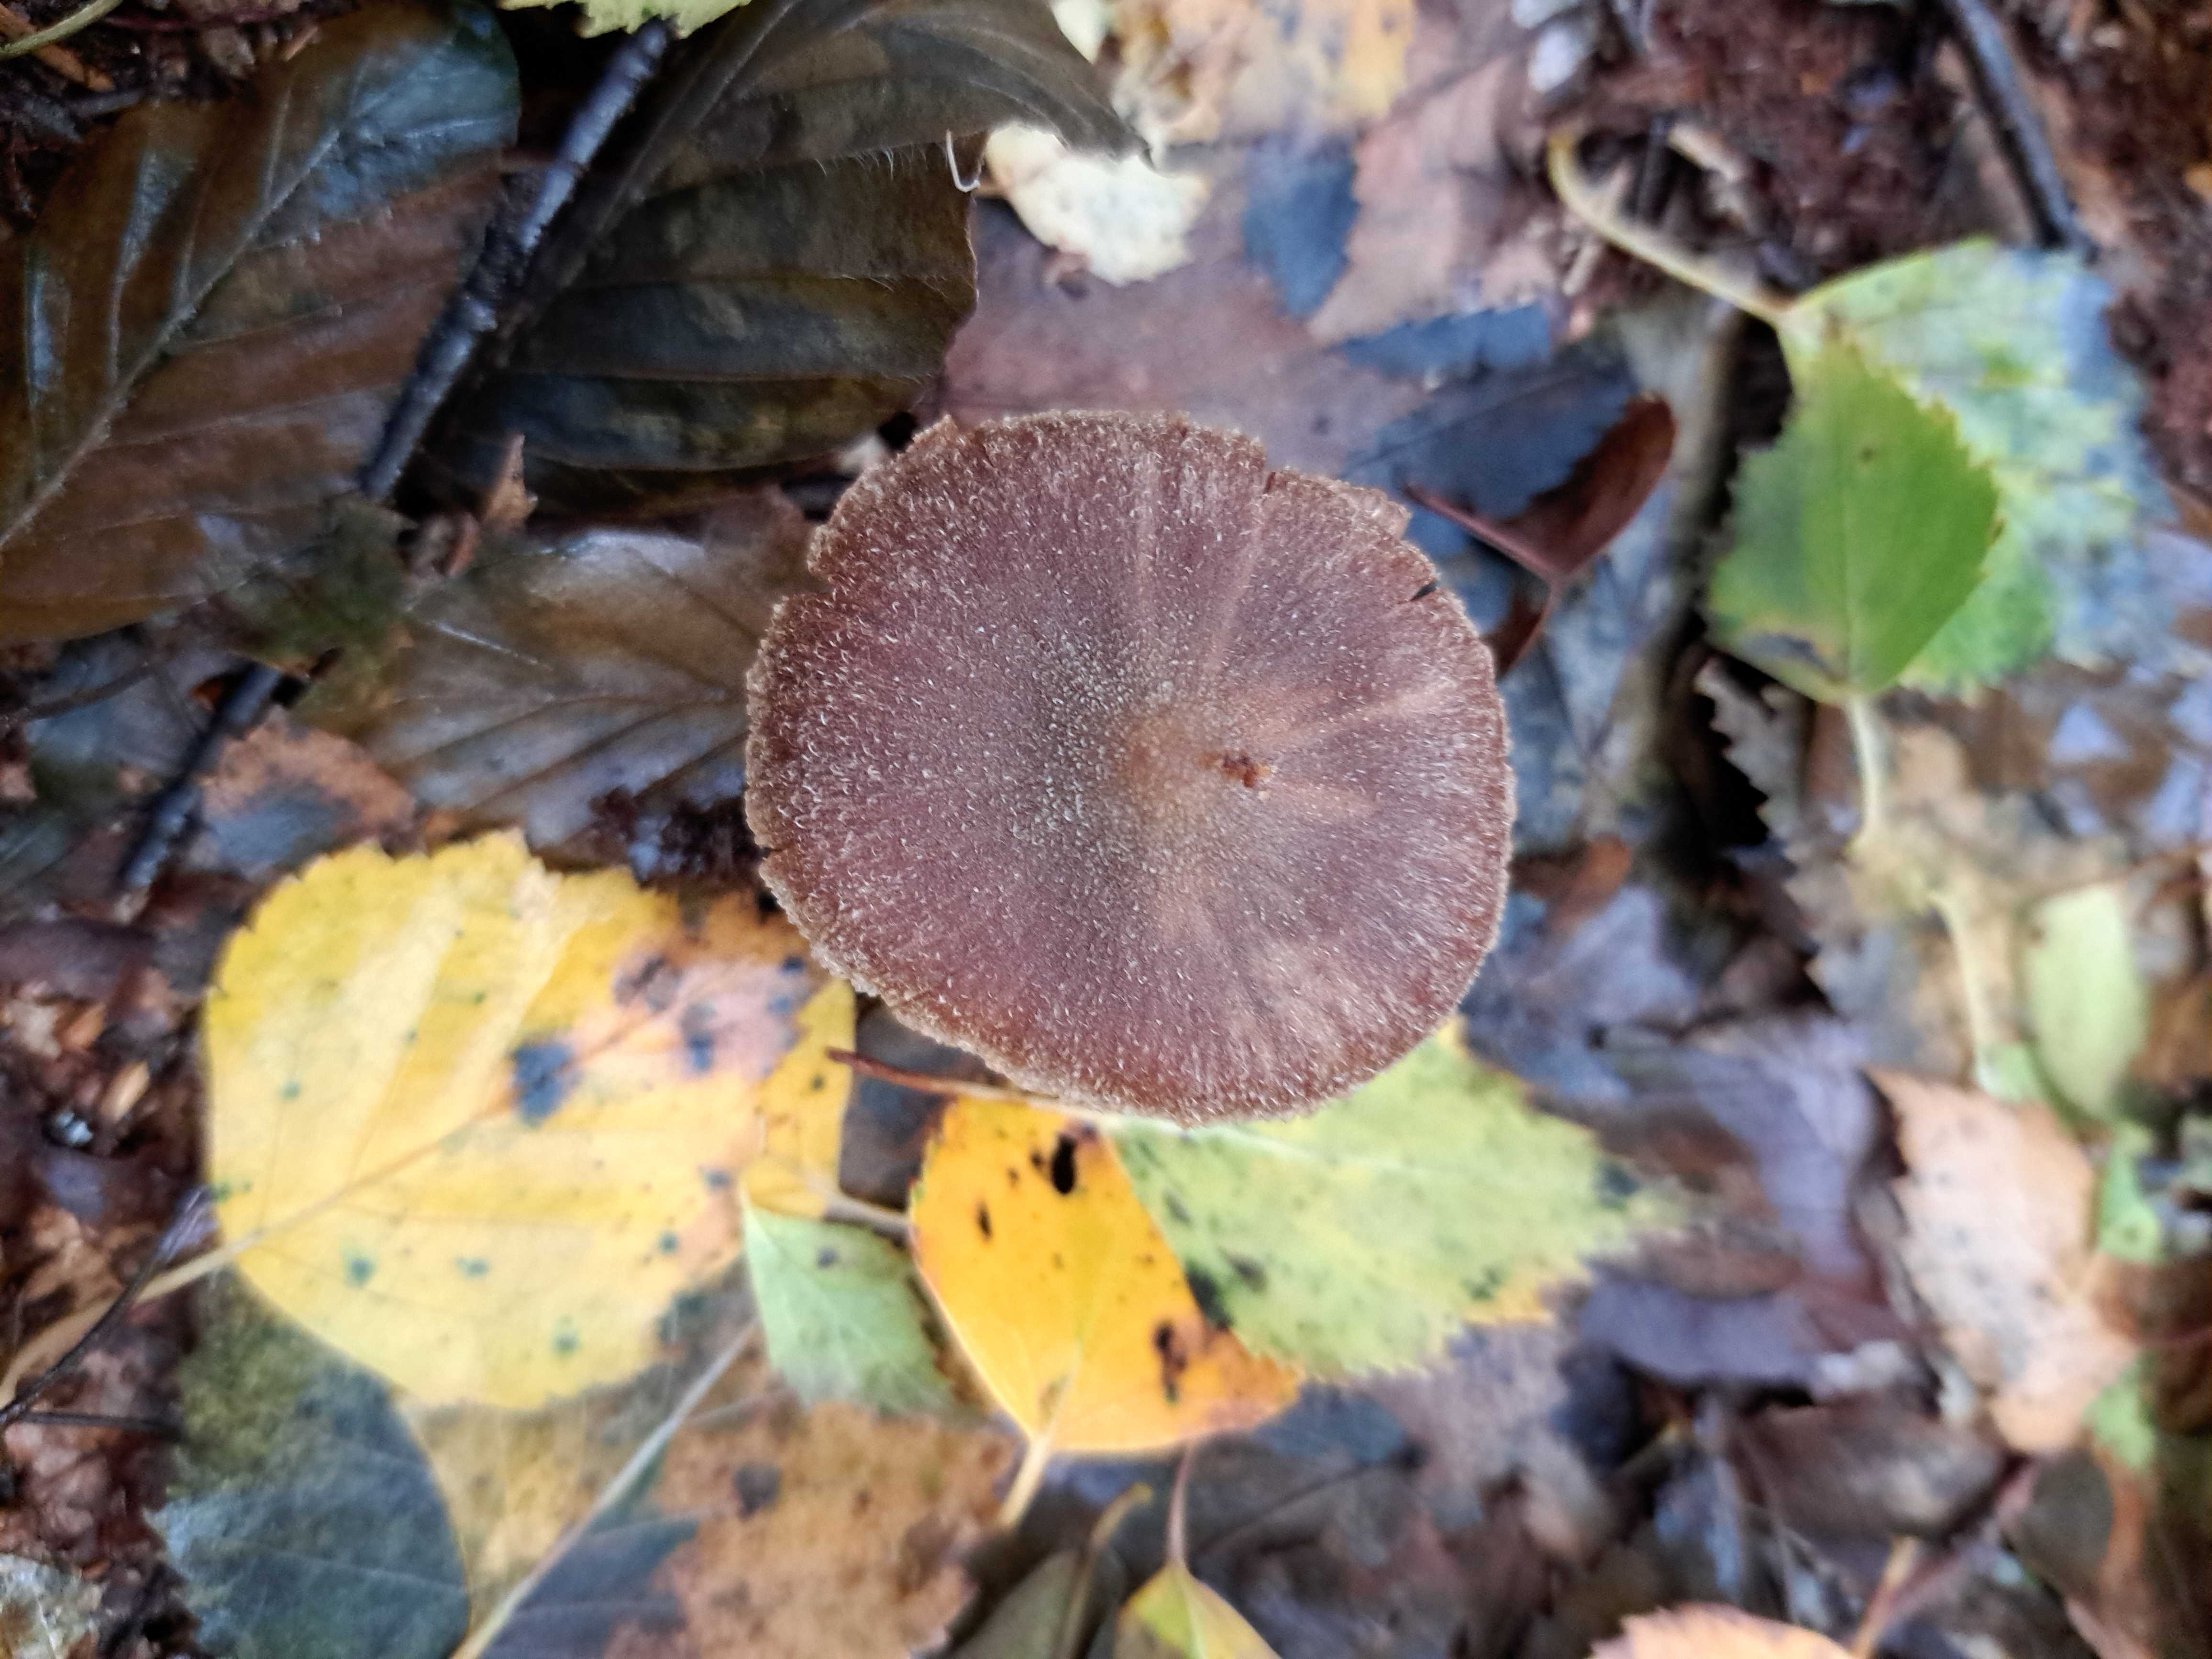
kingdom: Fungi
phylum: Basidiomycota
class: Agaricomycetes
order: Agaricales
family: Cortinariaceae
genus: Cortinarius
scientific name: Cortinarius
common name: pelargonie-slørhat
